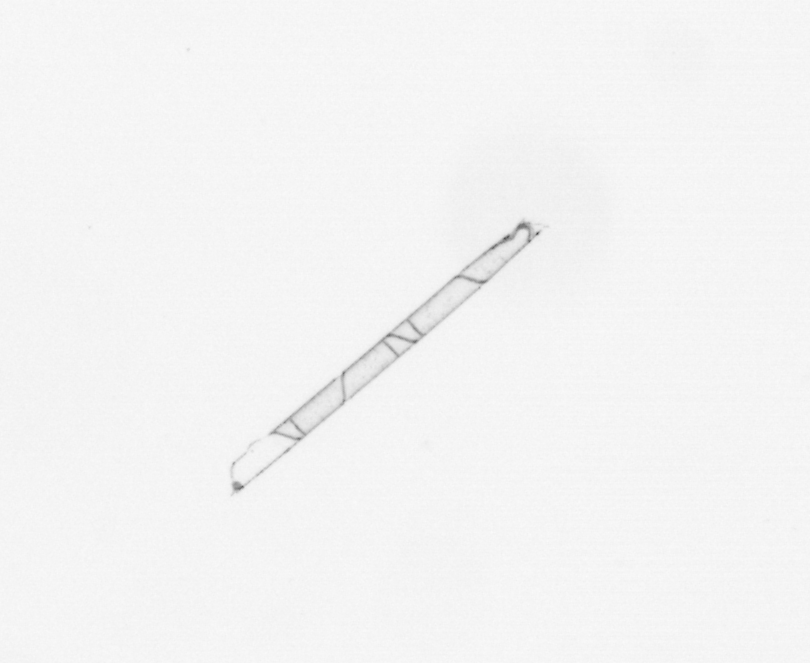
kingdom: Chromista
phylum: Ochrophyta
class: Bacillariophyceae
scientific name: Bacillariophyceae
